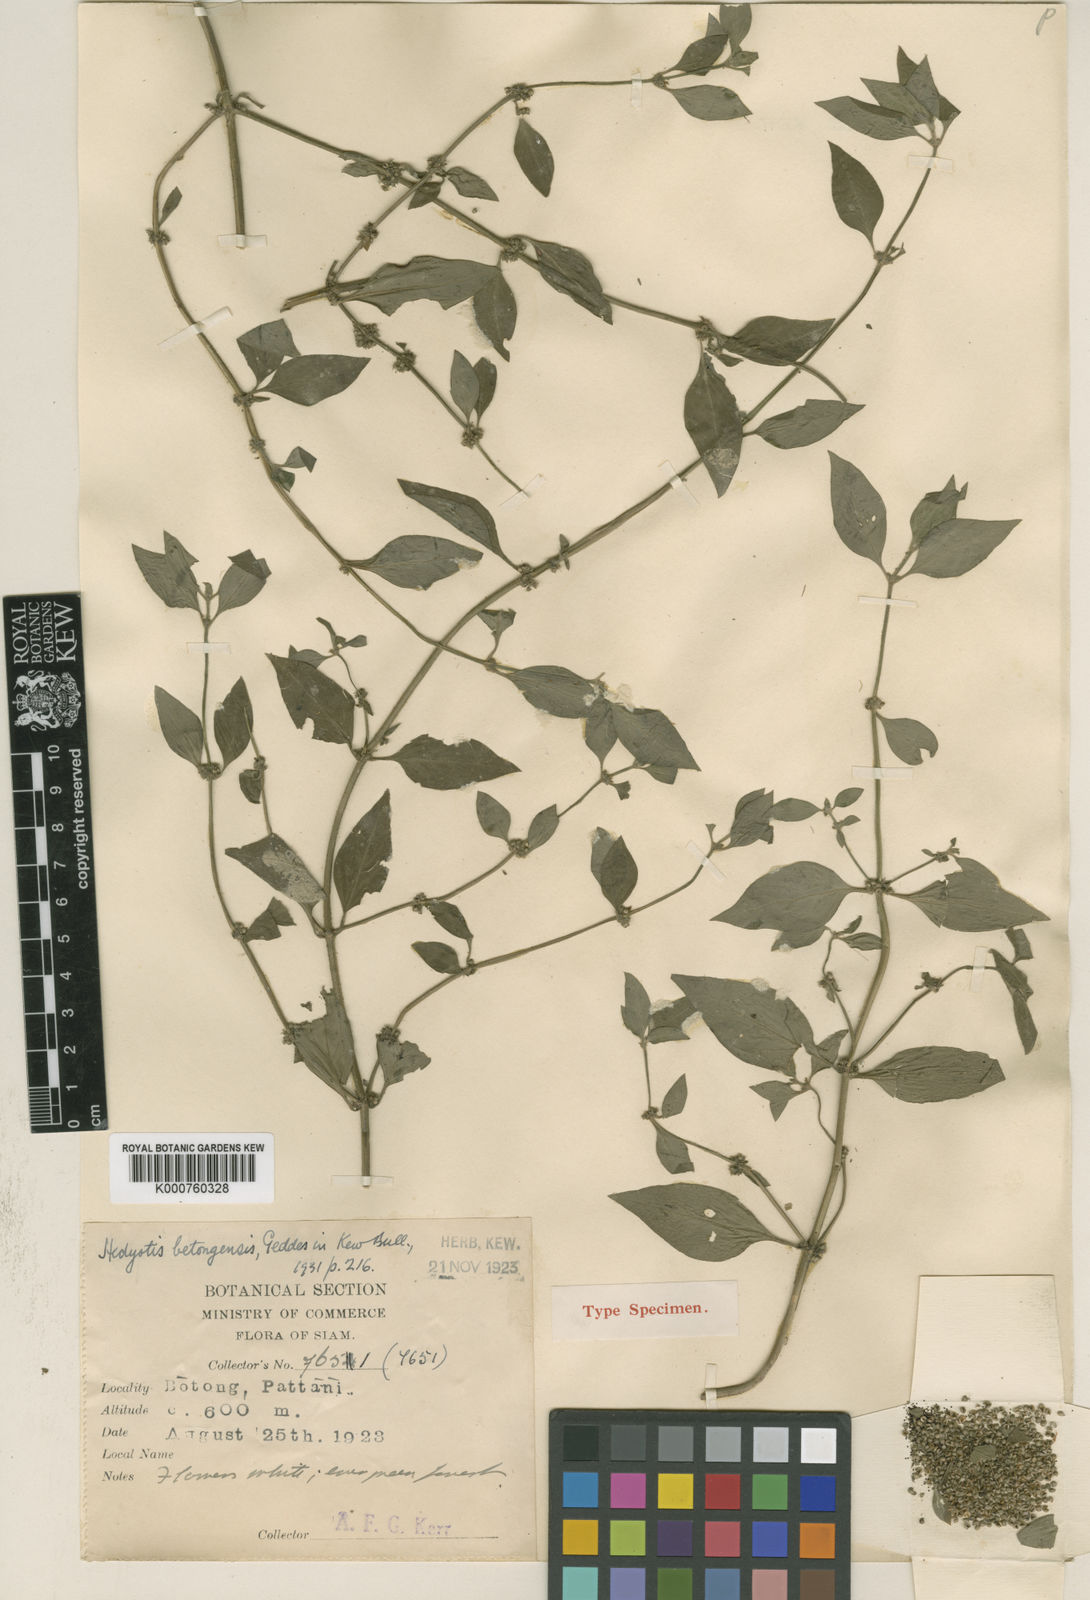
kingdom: Plantae
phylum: Tracheophyta
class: Magnoliopsida
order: Gentianales
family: Rubiaceae
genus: Hedyotis
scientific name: Hedyotis havilandii
